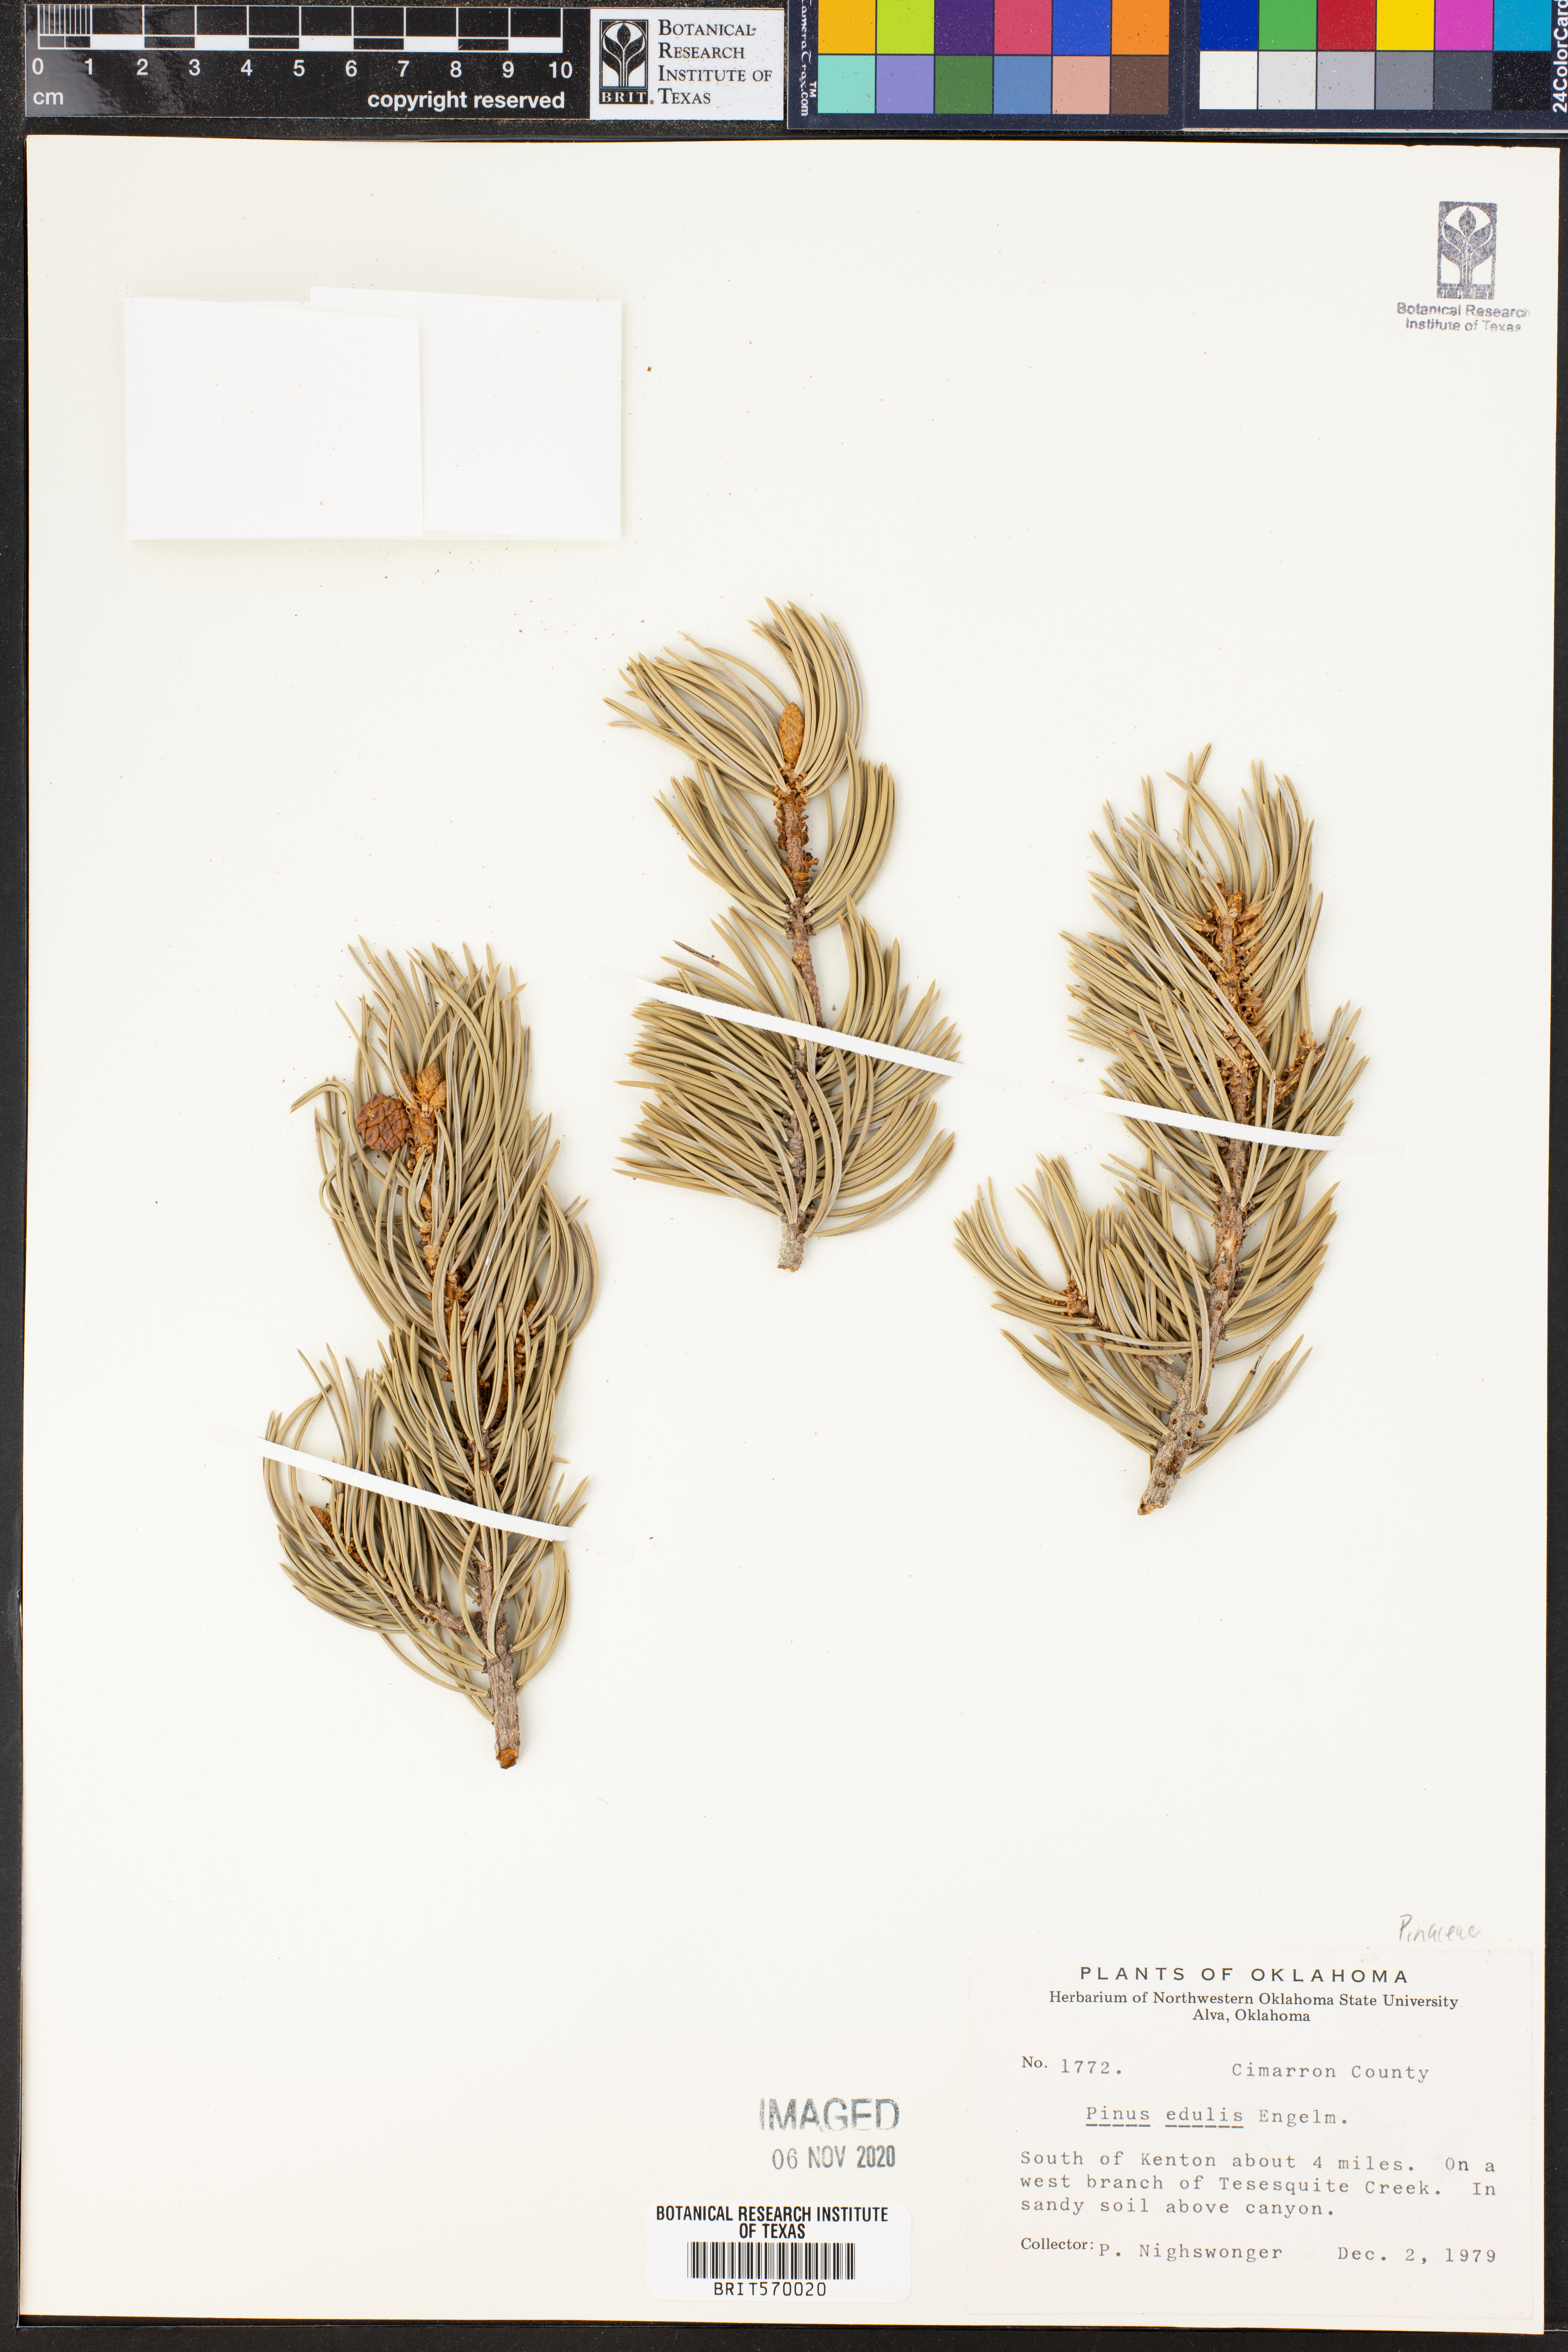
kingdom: Plantae
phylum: Tracheophyta
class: Pinopsida
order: Pinales
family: Pinaceae
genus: Pinus
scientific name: Pinus edulis
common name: Colorado pinyon
